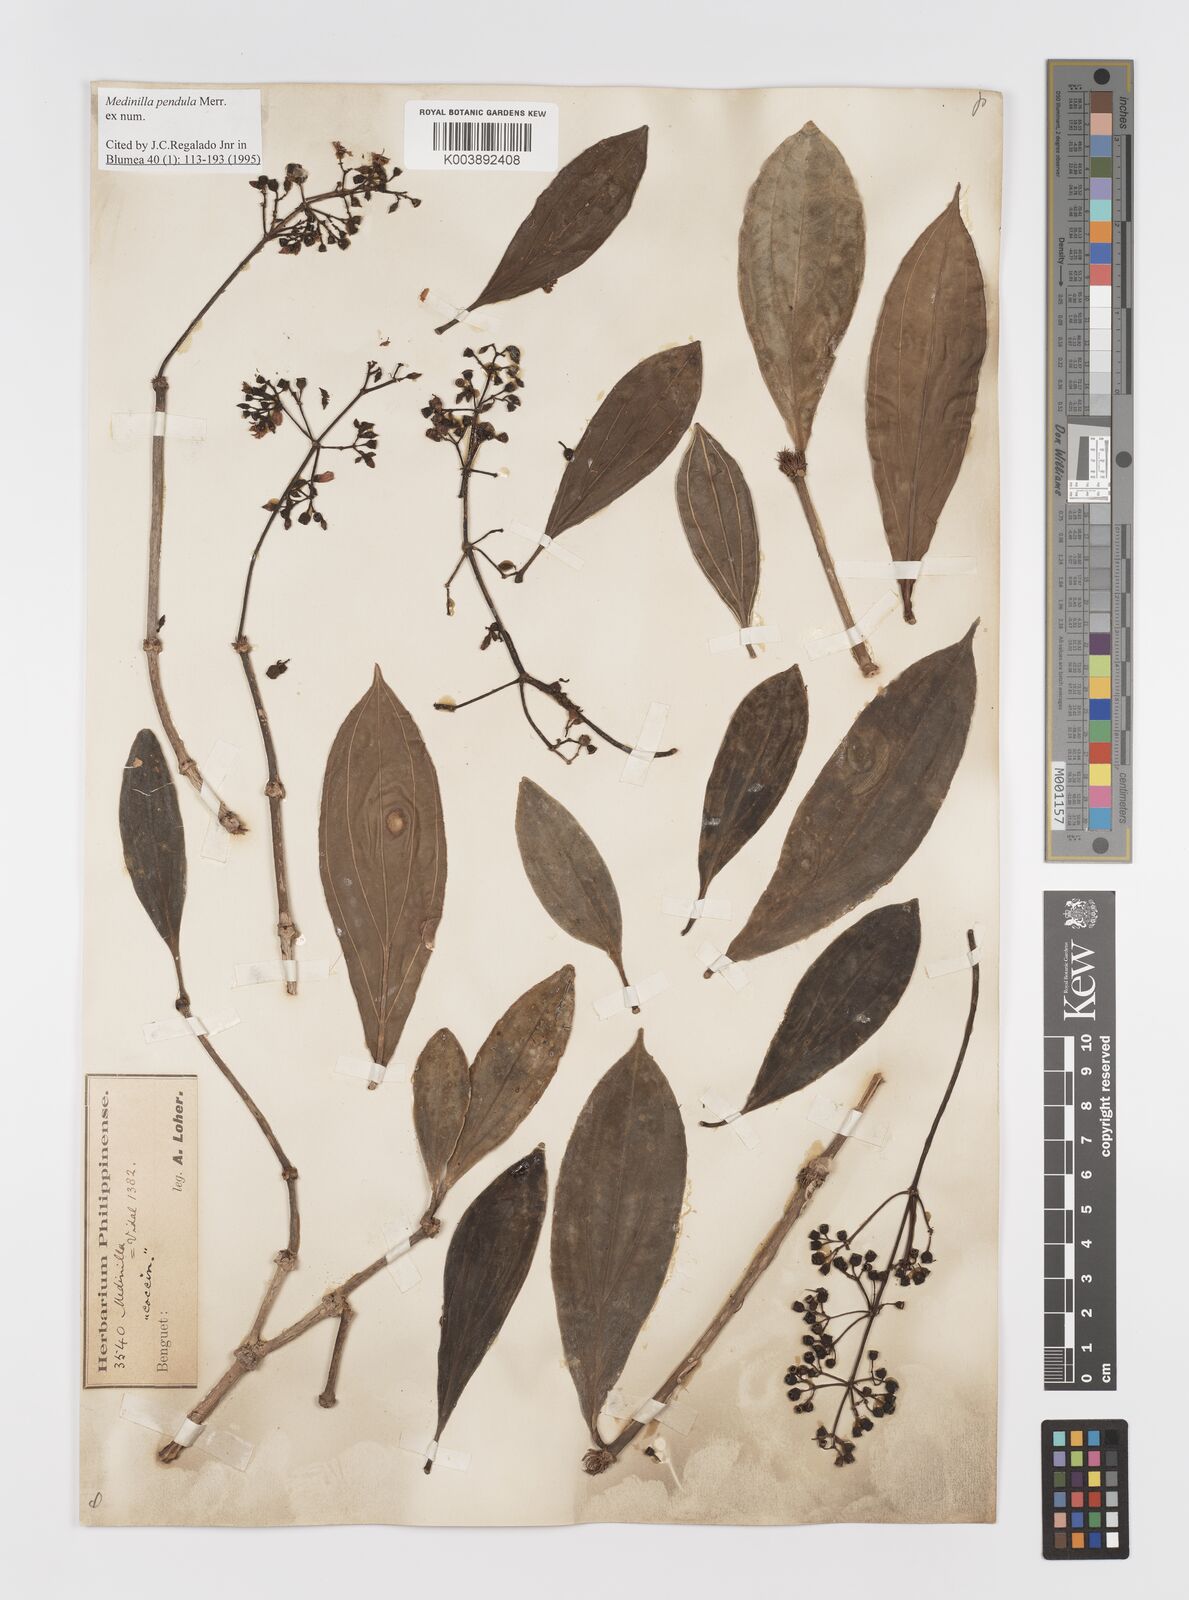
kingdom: Plantae
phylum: Tracheophyta
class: Magnoliopsida
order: Myrtales
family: Melastomataceae
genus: Medinilla
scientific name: Medinilla pendula
